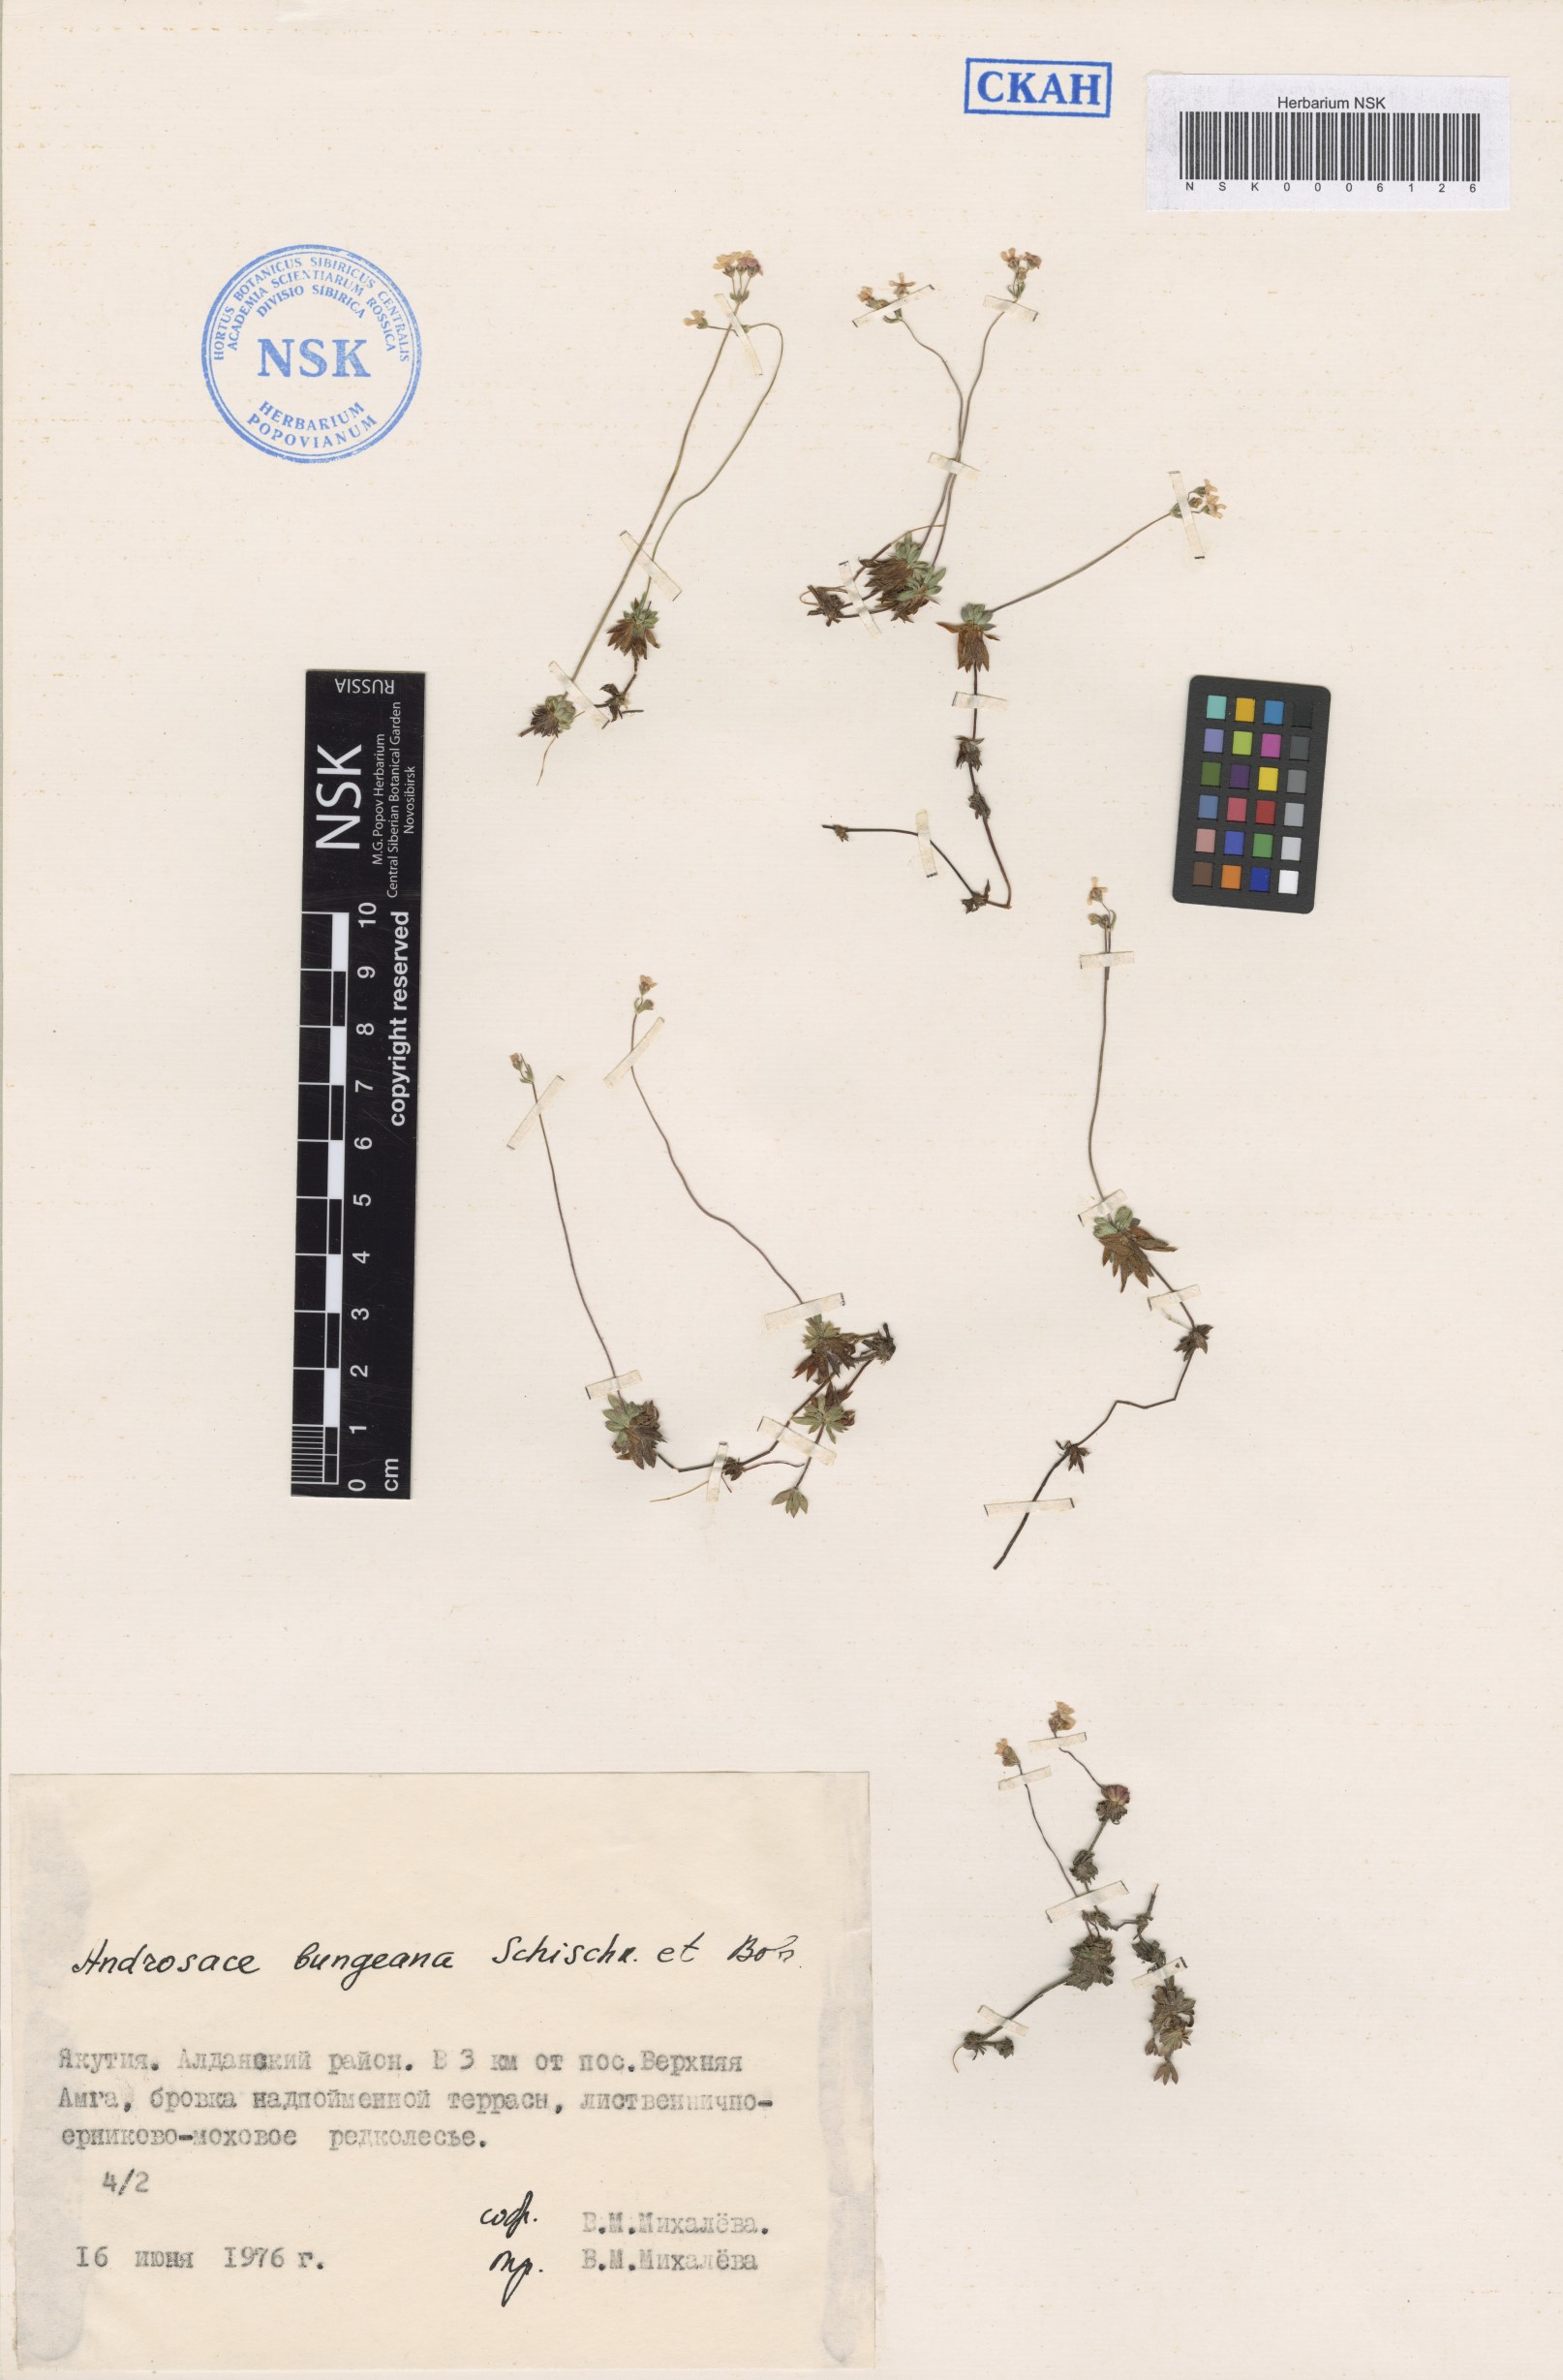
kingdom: Plantae
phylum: Tracheophyta
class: Magnoliopsida
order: Ericales
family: Primulaceae
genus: Androsace
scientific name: Androsace bungeana
